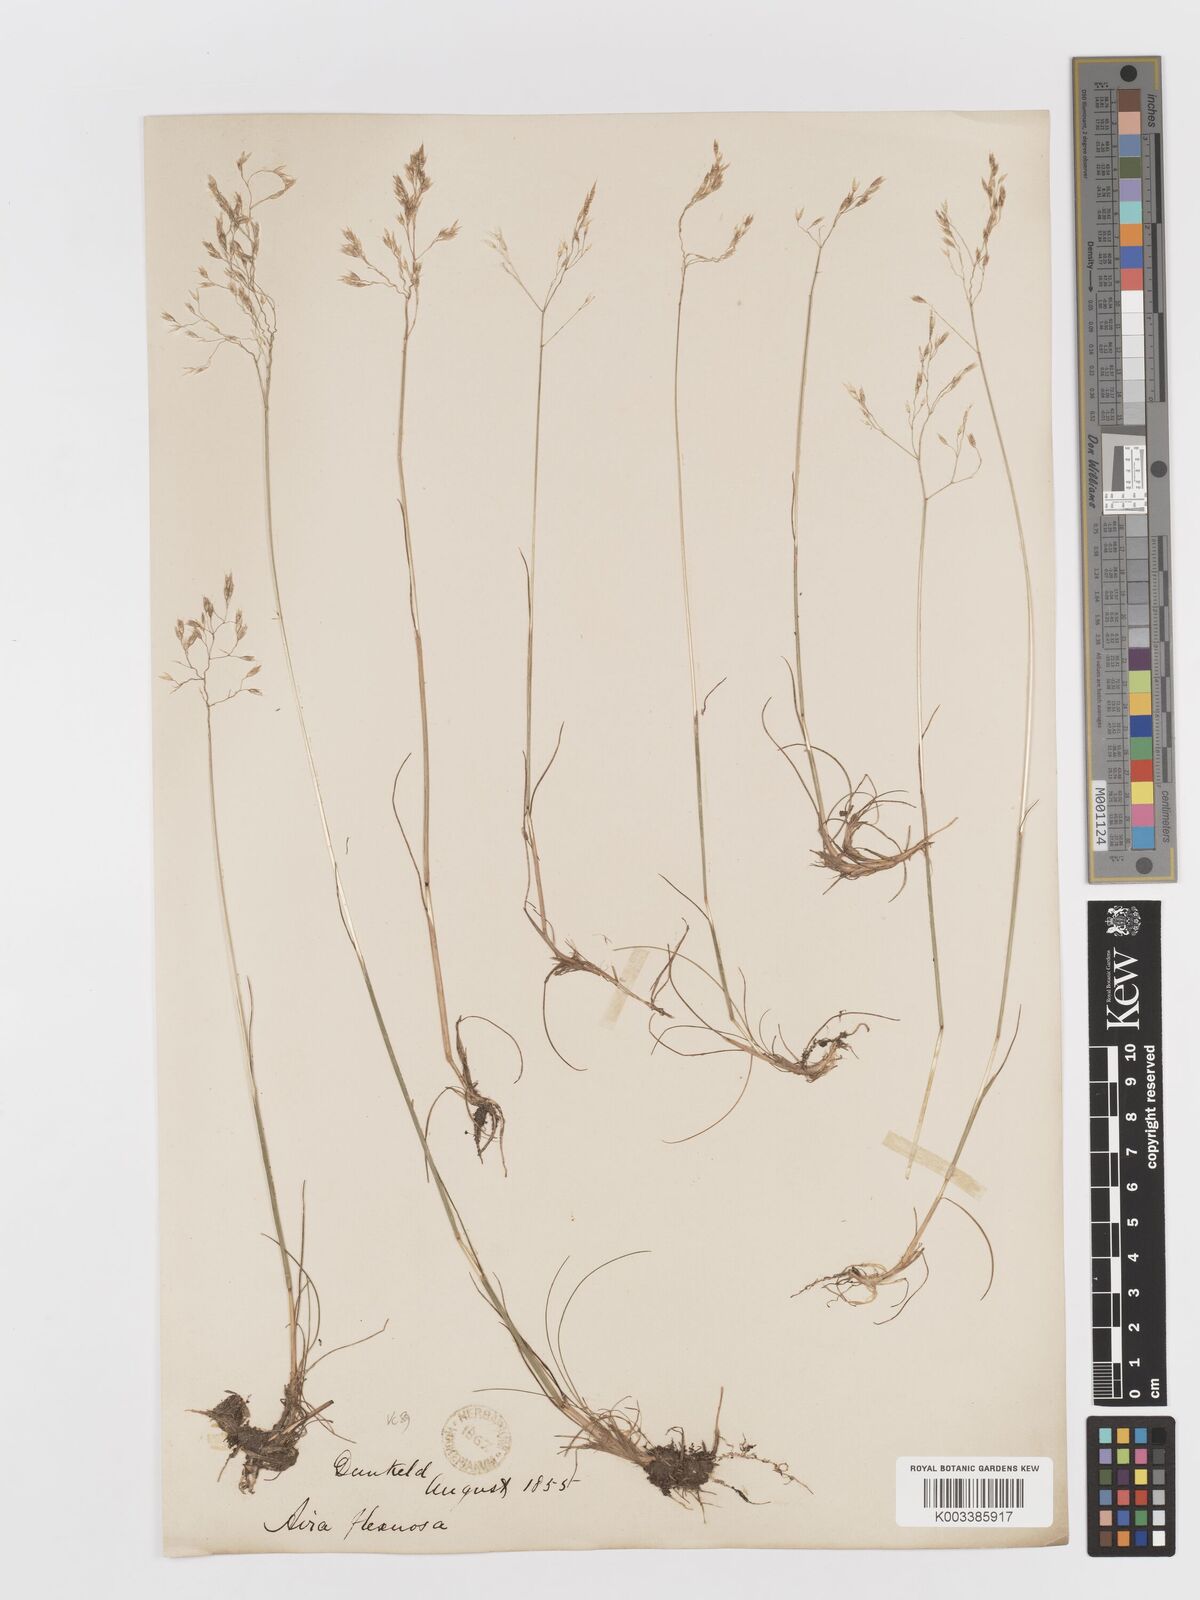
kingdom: Plantae
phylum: Tracheophyta
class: Liliopsida
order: Poales
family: Poaceae
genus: Avenella
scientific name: Avenella flexuosa
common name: Wavy hairgrass
